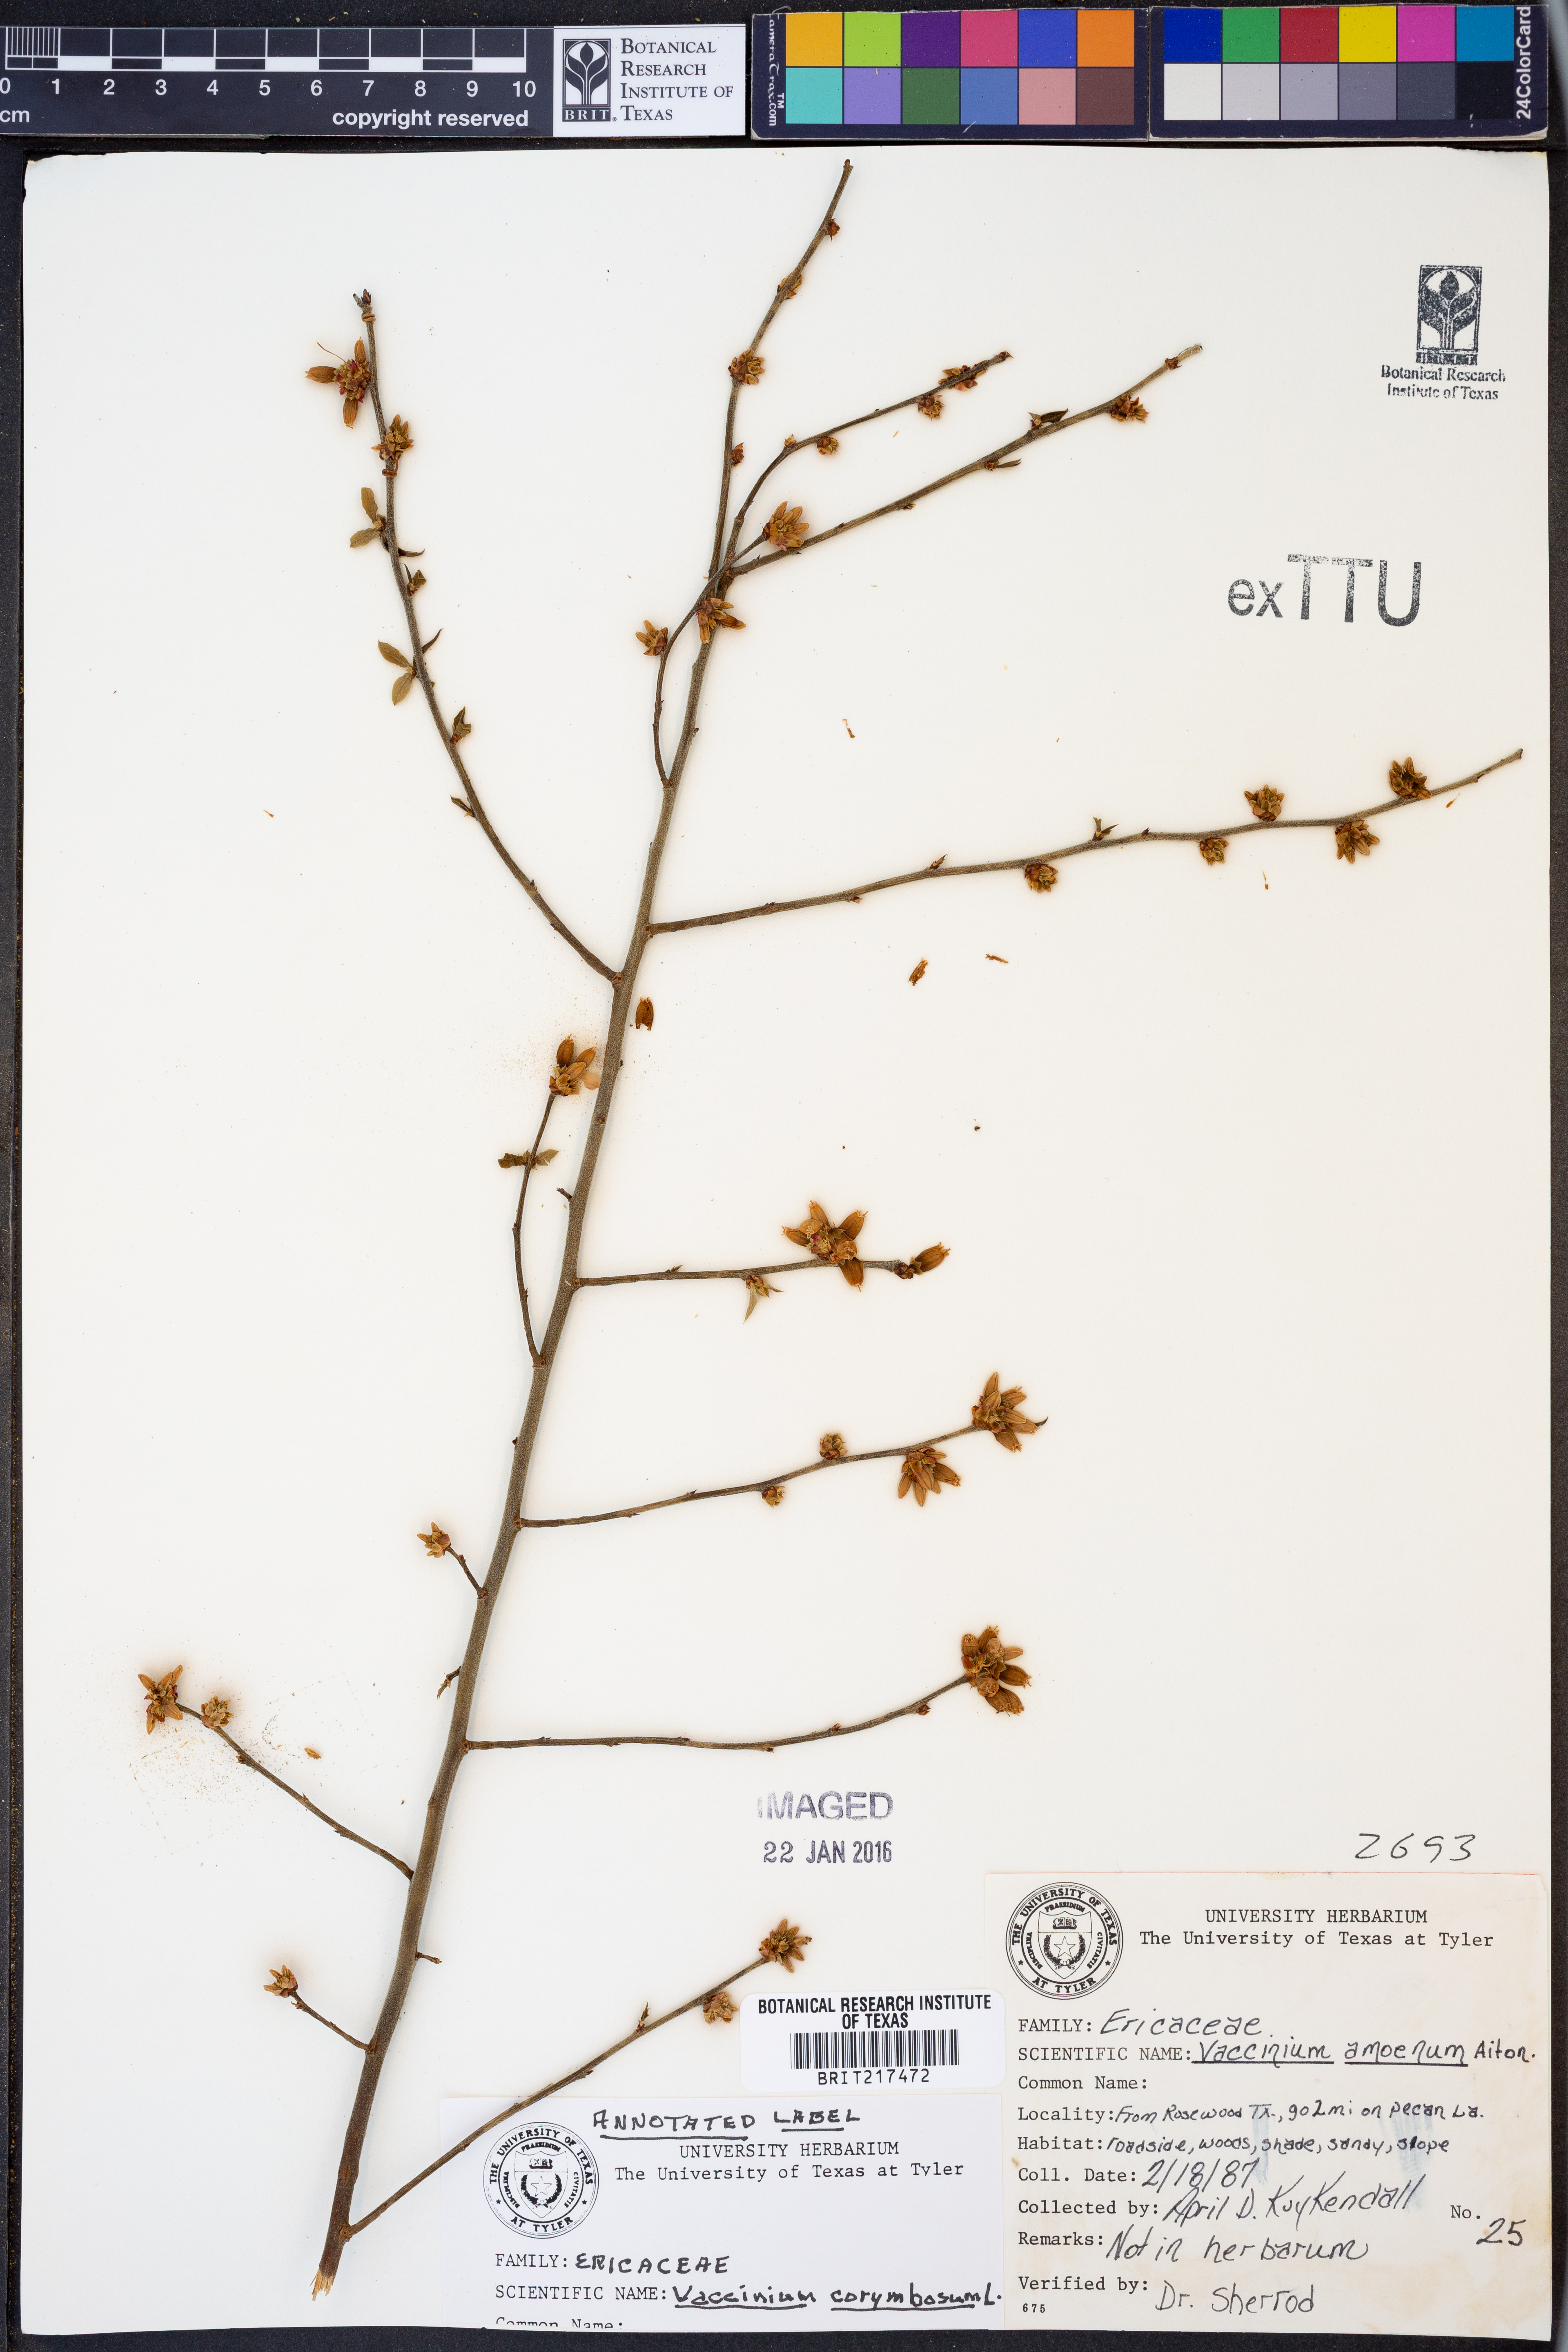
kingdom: Plantae
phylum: Tracheophyta
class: Magnoliopsida
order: Ericales
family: Ericaceae
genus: Vaccinium
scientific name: Vaccinium corymbosum
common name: Blueberry
